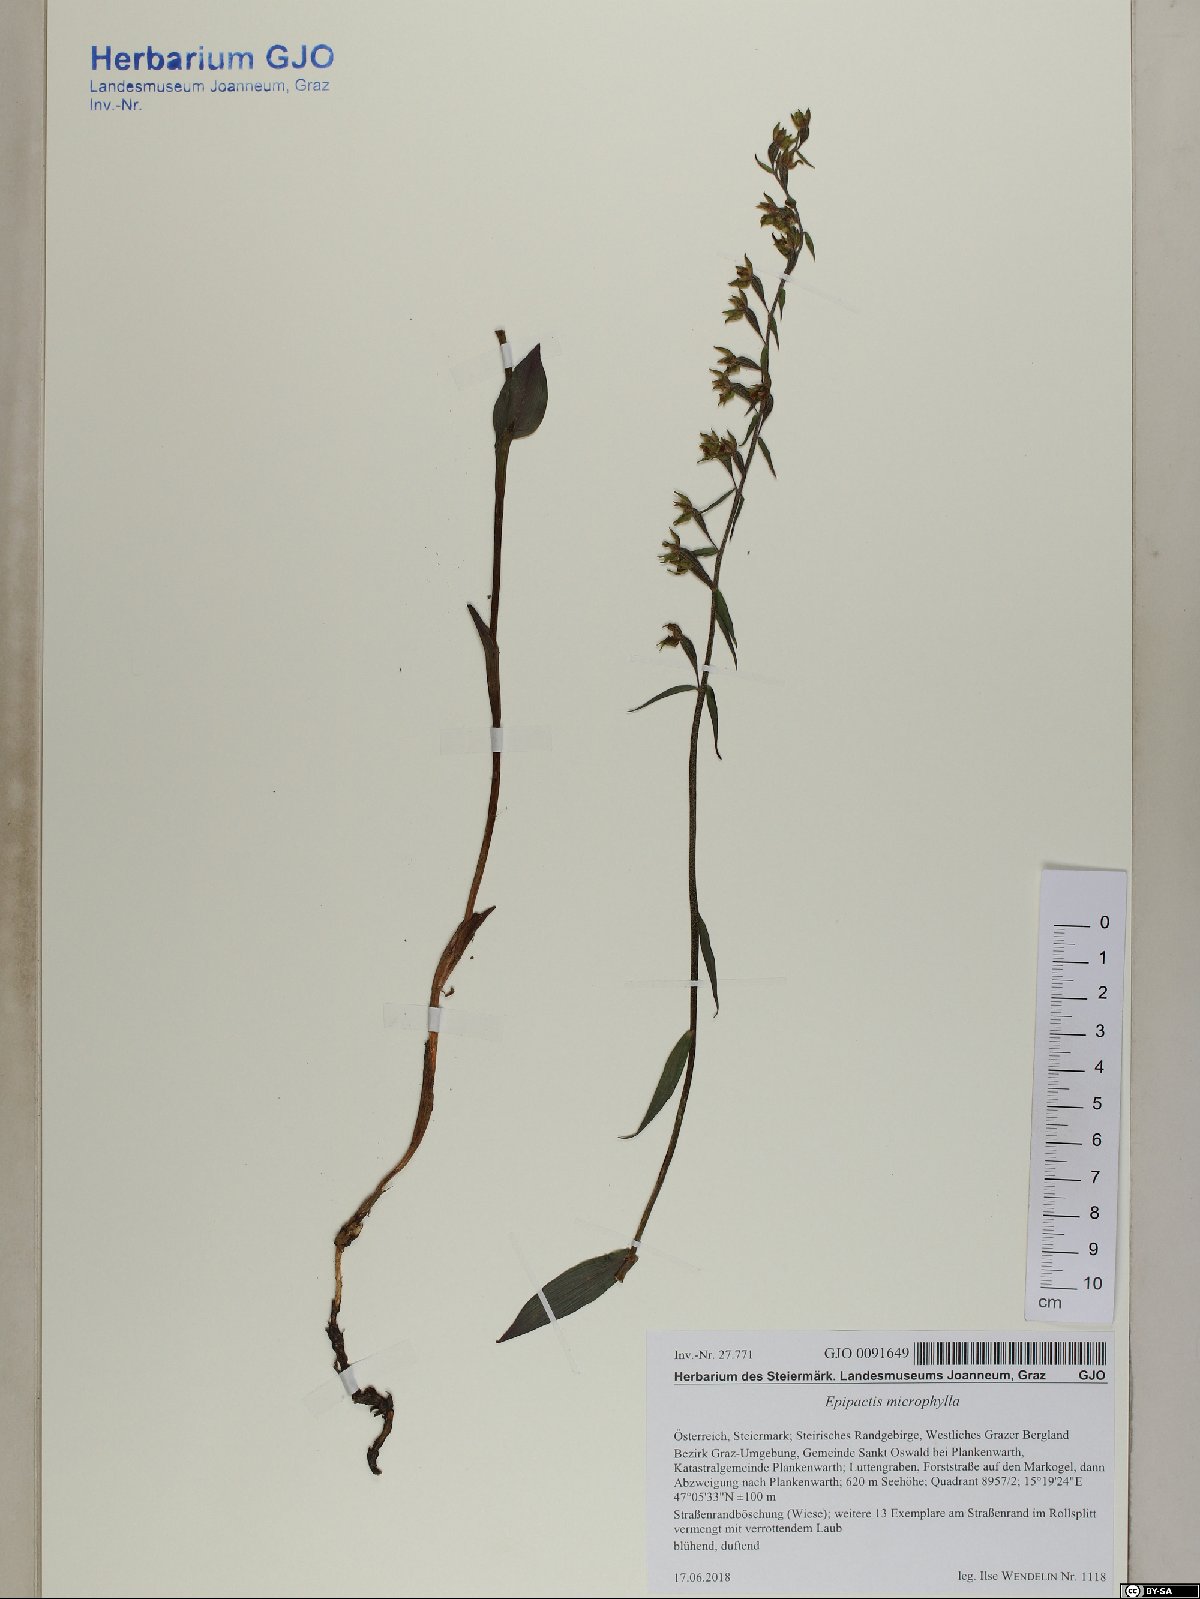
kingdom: Plantae
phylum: Tracheophyta
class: Liliopsida
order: Asparagales
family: Orchidaceae
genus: Epipactis
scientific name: Epipactis microphylla
